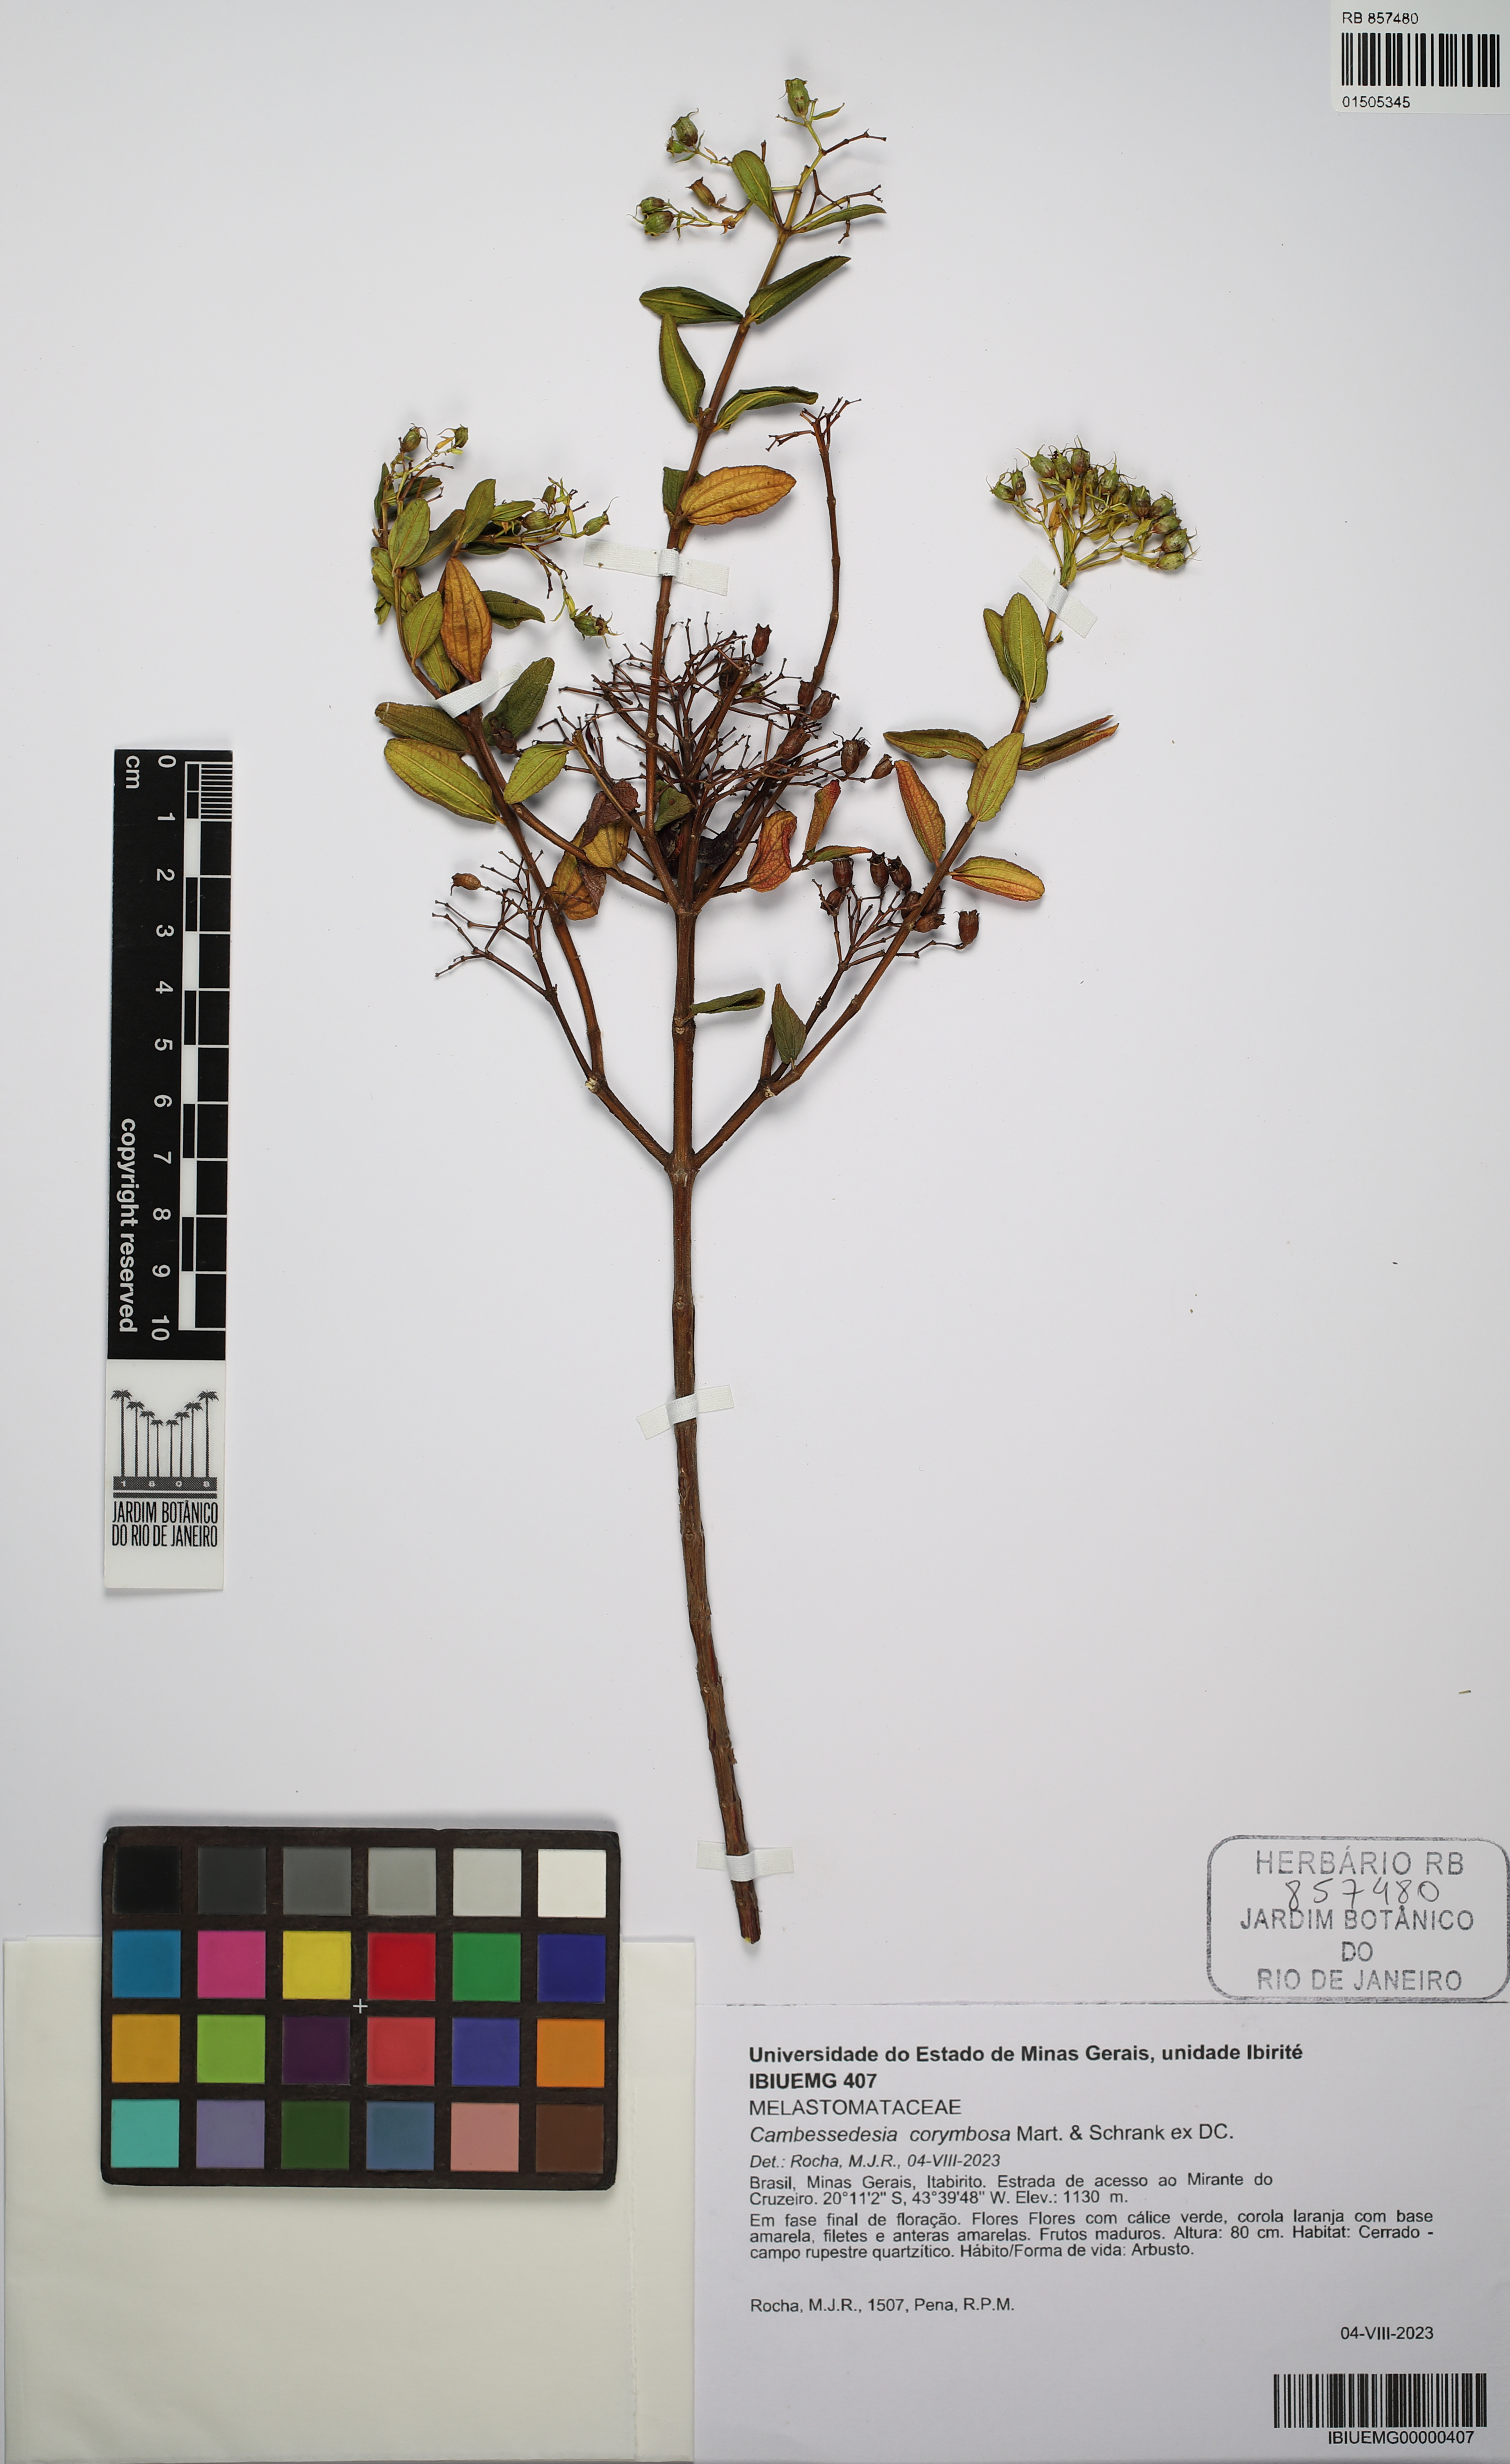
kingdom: Plantae
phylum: Tracheophyta
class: Magnoliopsida
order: Myrtales
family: Melastomataceae
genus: Cambessedesia
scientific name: Cambessedesia corymbosa
